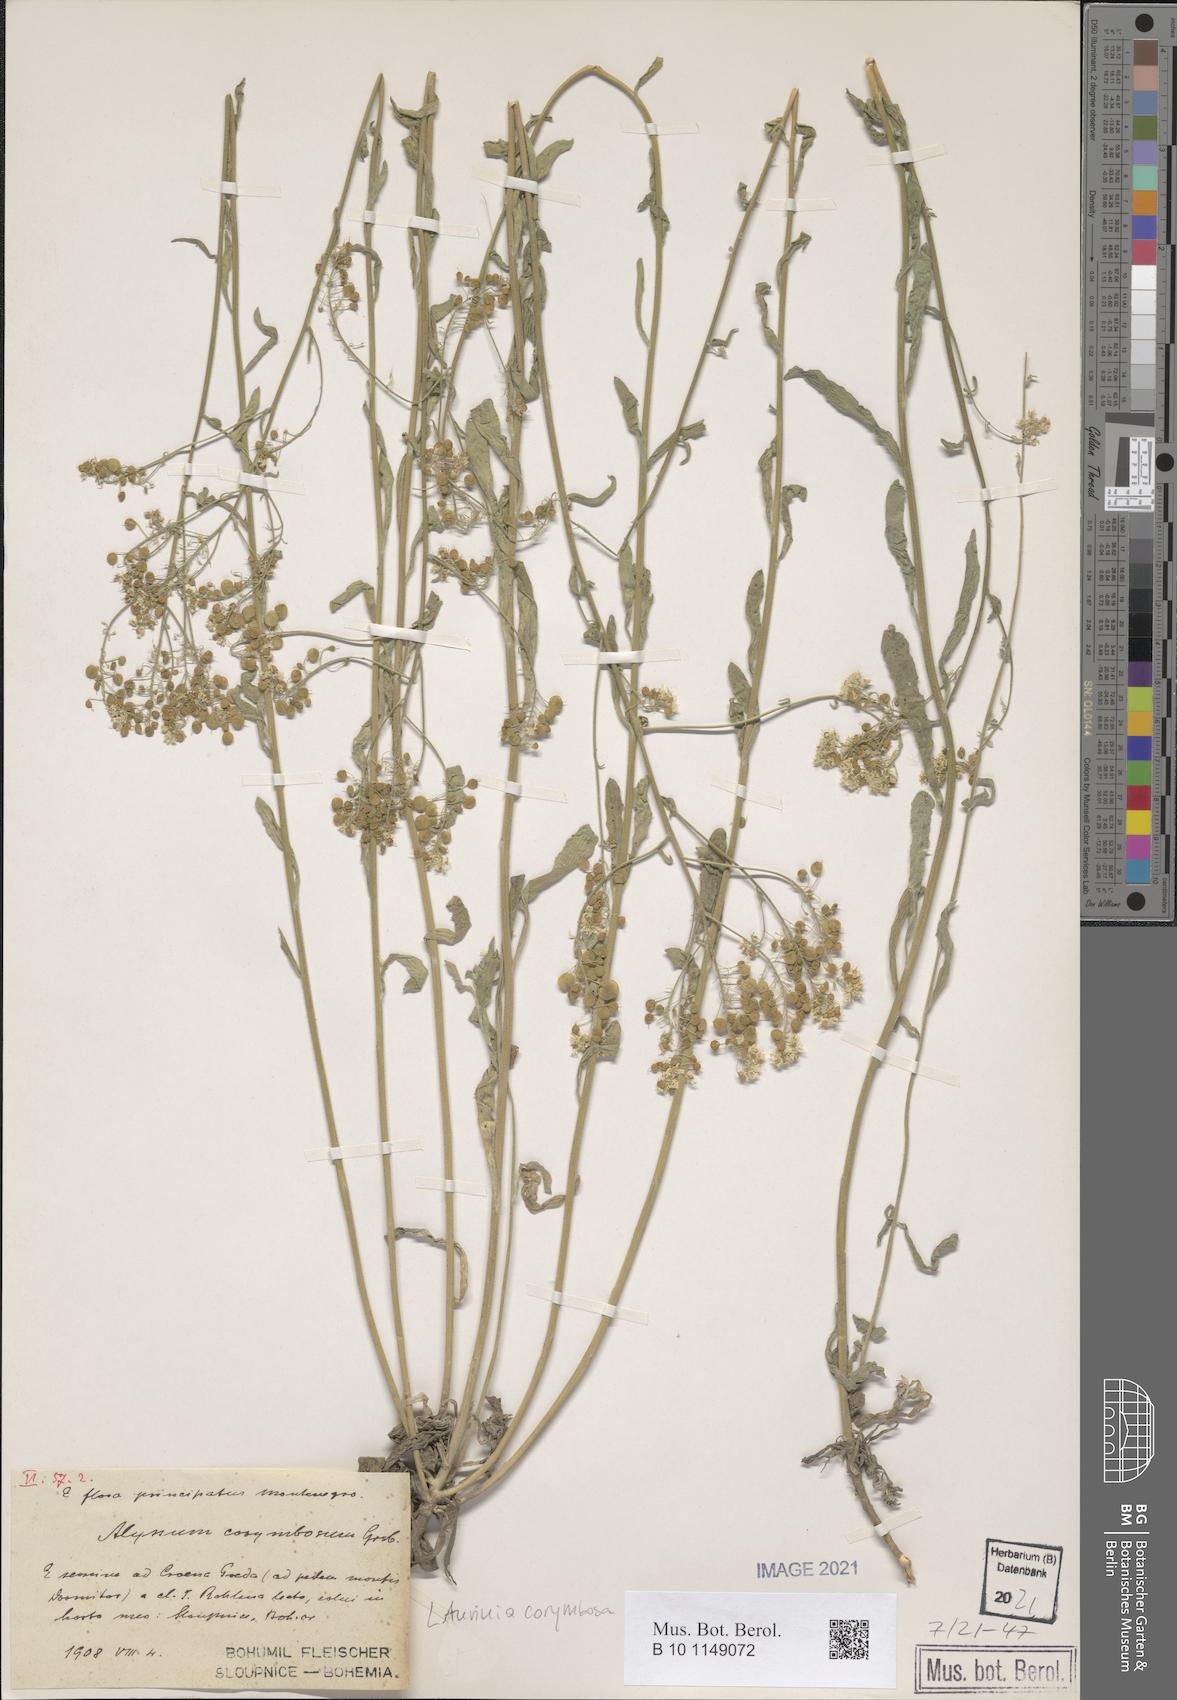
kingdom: Plantae
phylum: Tracheophyta
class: Magnoliopsida
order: Brassicales
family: Brassicaceae
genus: Aurinia
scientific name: Aurinia corymbosa
